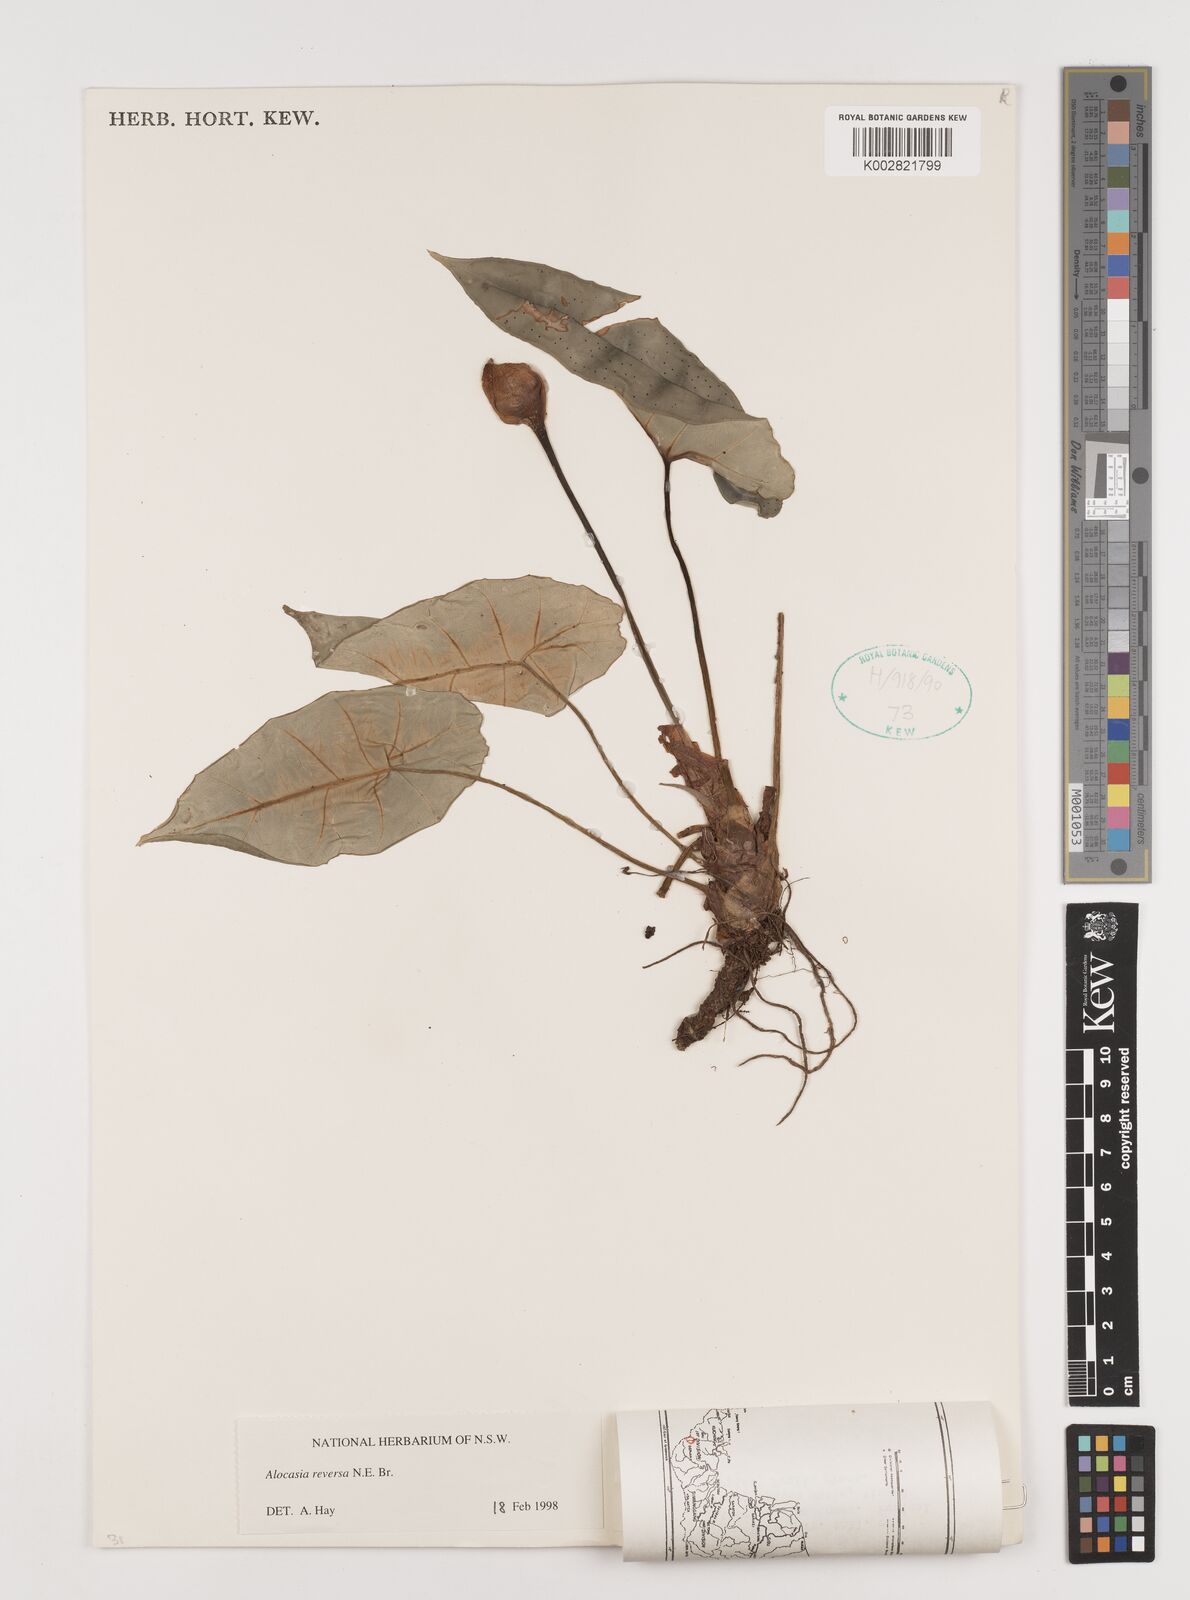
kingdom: Plantae
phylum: Tracheophyta
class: Liliopsida
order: Alismatales
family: Araceae
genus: Alocasia
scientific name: Alocasia reversa
